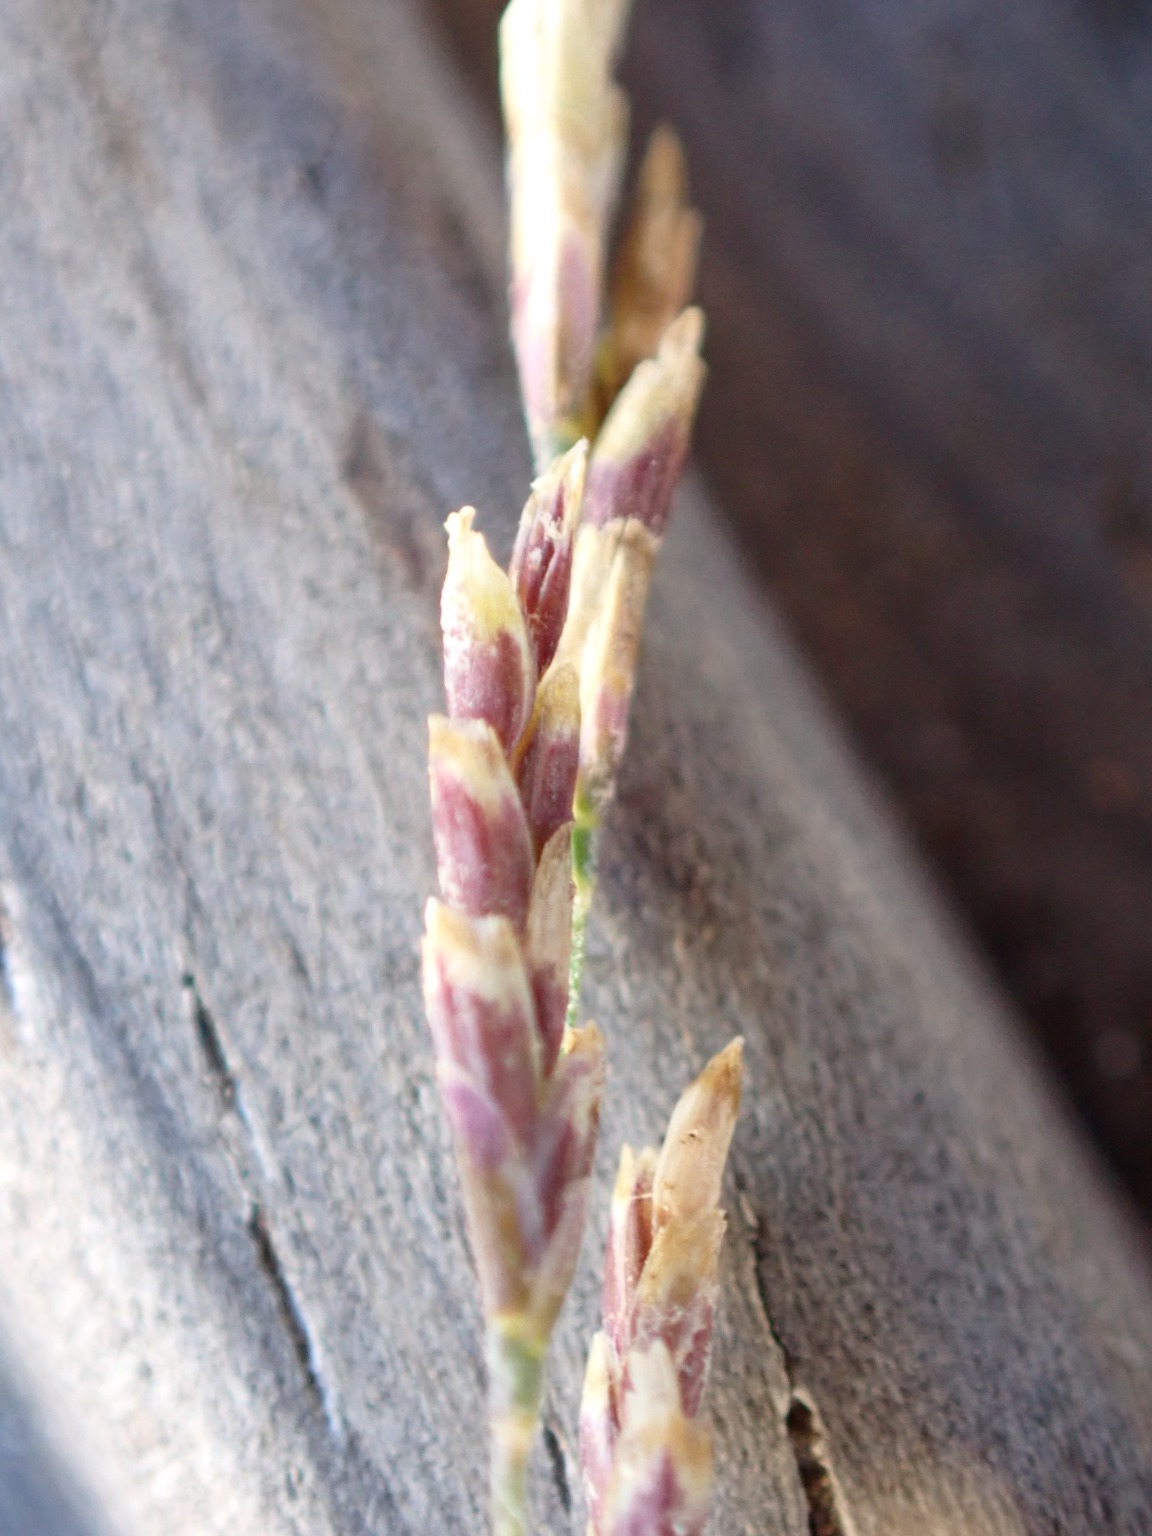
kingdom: Plantae
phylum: Tracheophyta
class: Liliopsida
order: Poales
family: Poaceae
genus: Puccinellia
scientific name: Puccinellia distans
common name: Udspærret annelgræs
